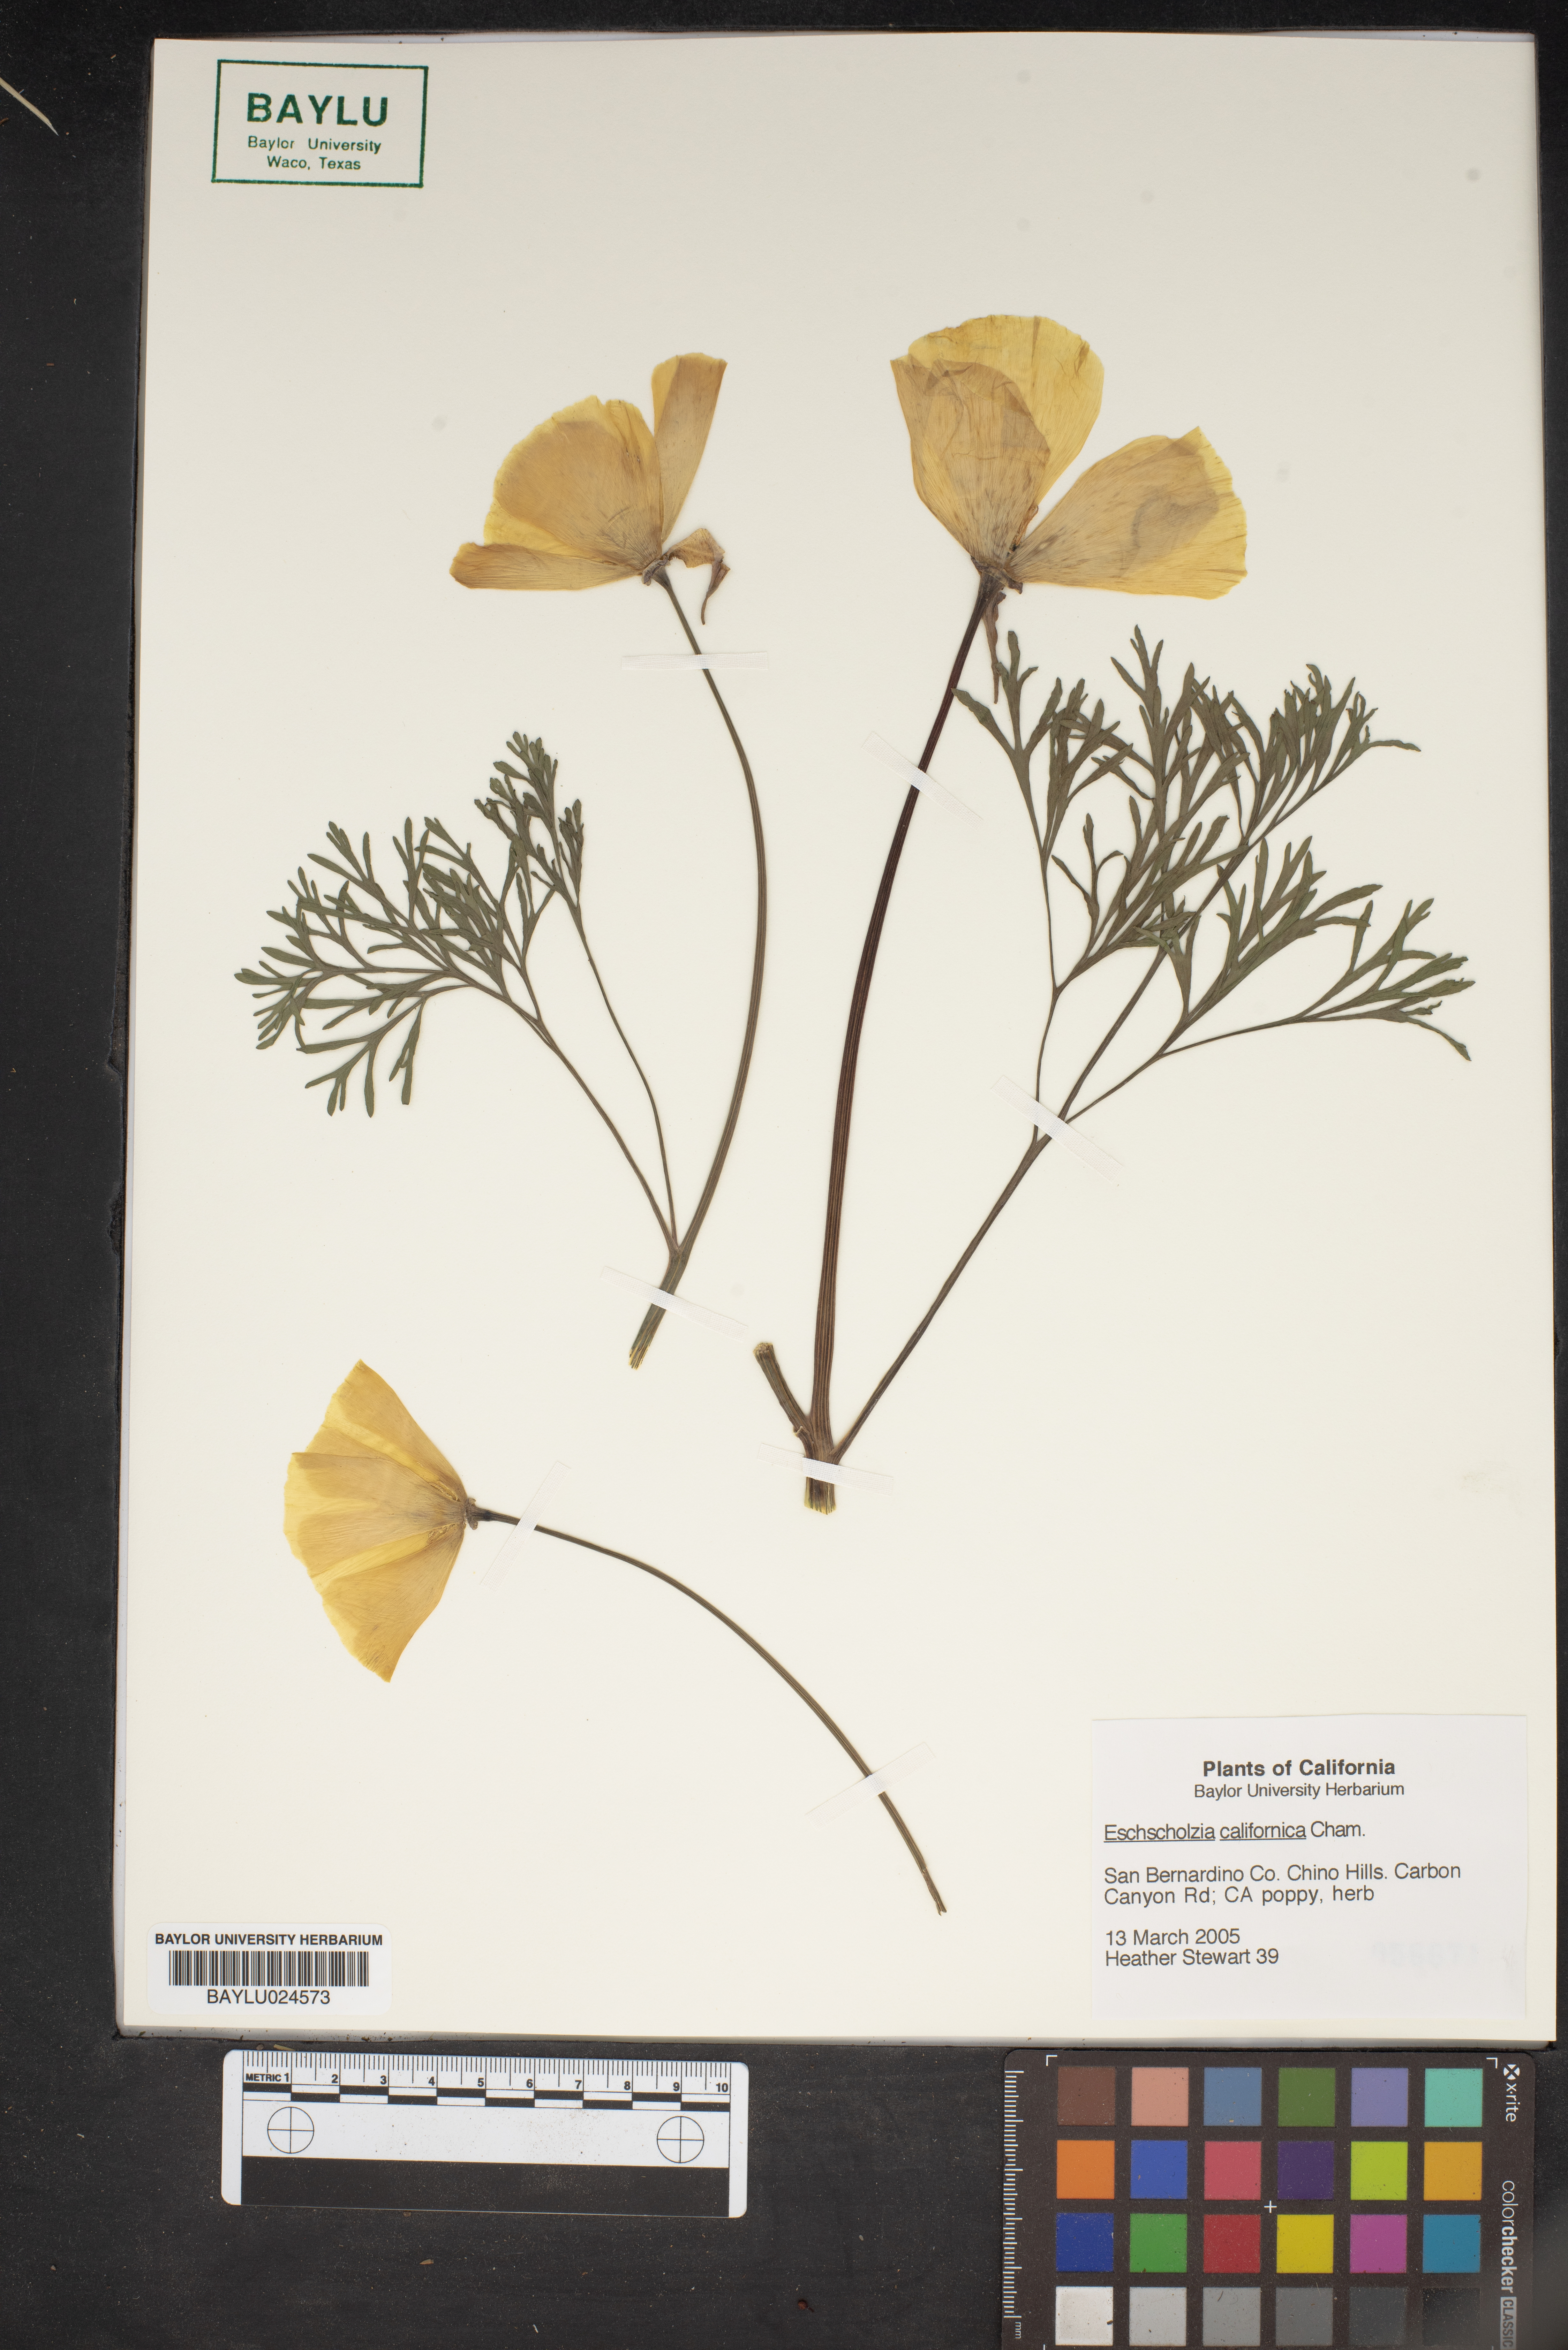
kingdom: Plantae
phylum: Tracheophyta
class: Magnoliopsida
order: Ranunculales
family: Papaveraceae
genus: Eschscholzia
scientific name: Eschscholzia californica
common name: California poppy
